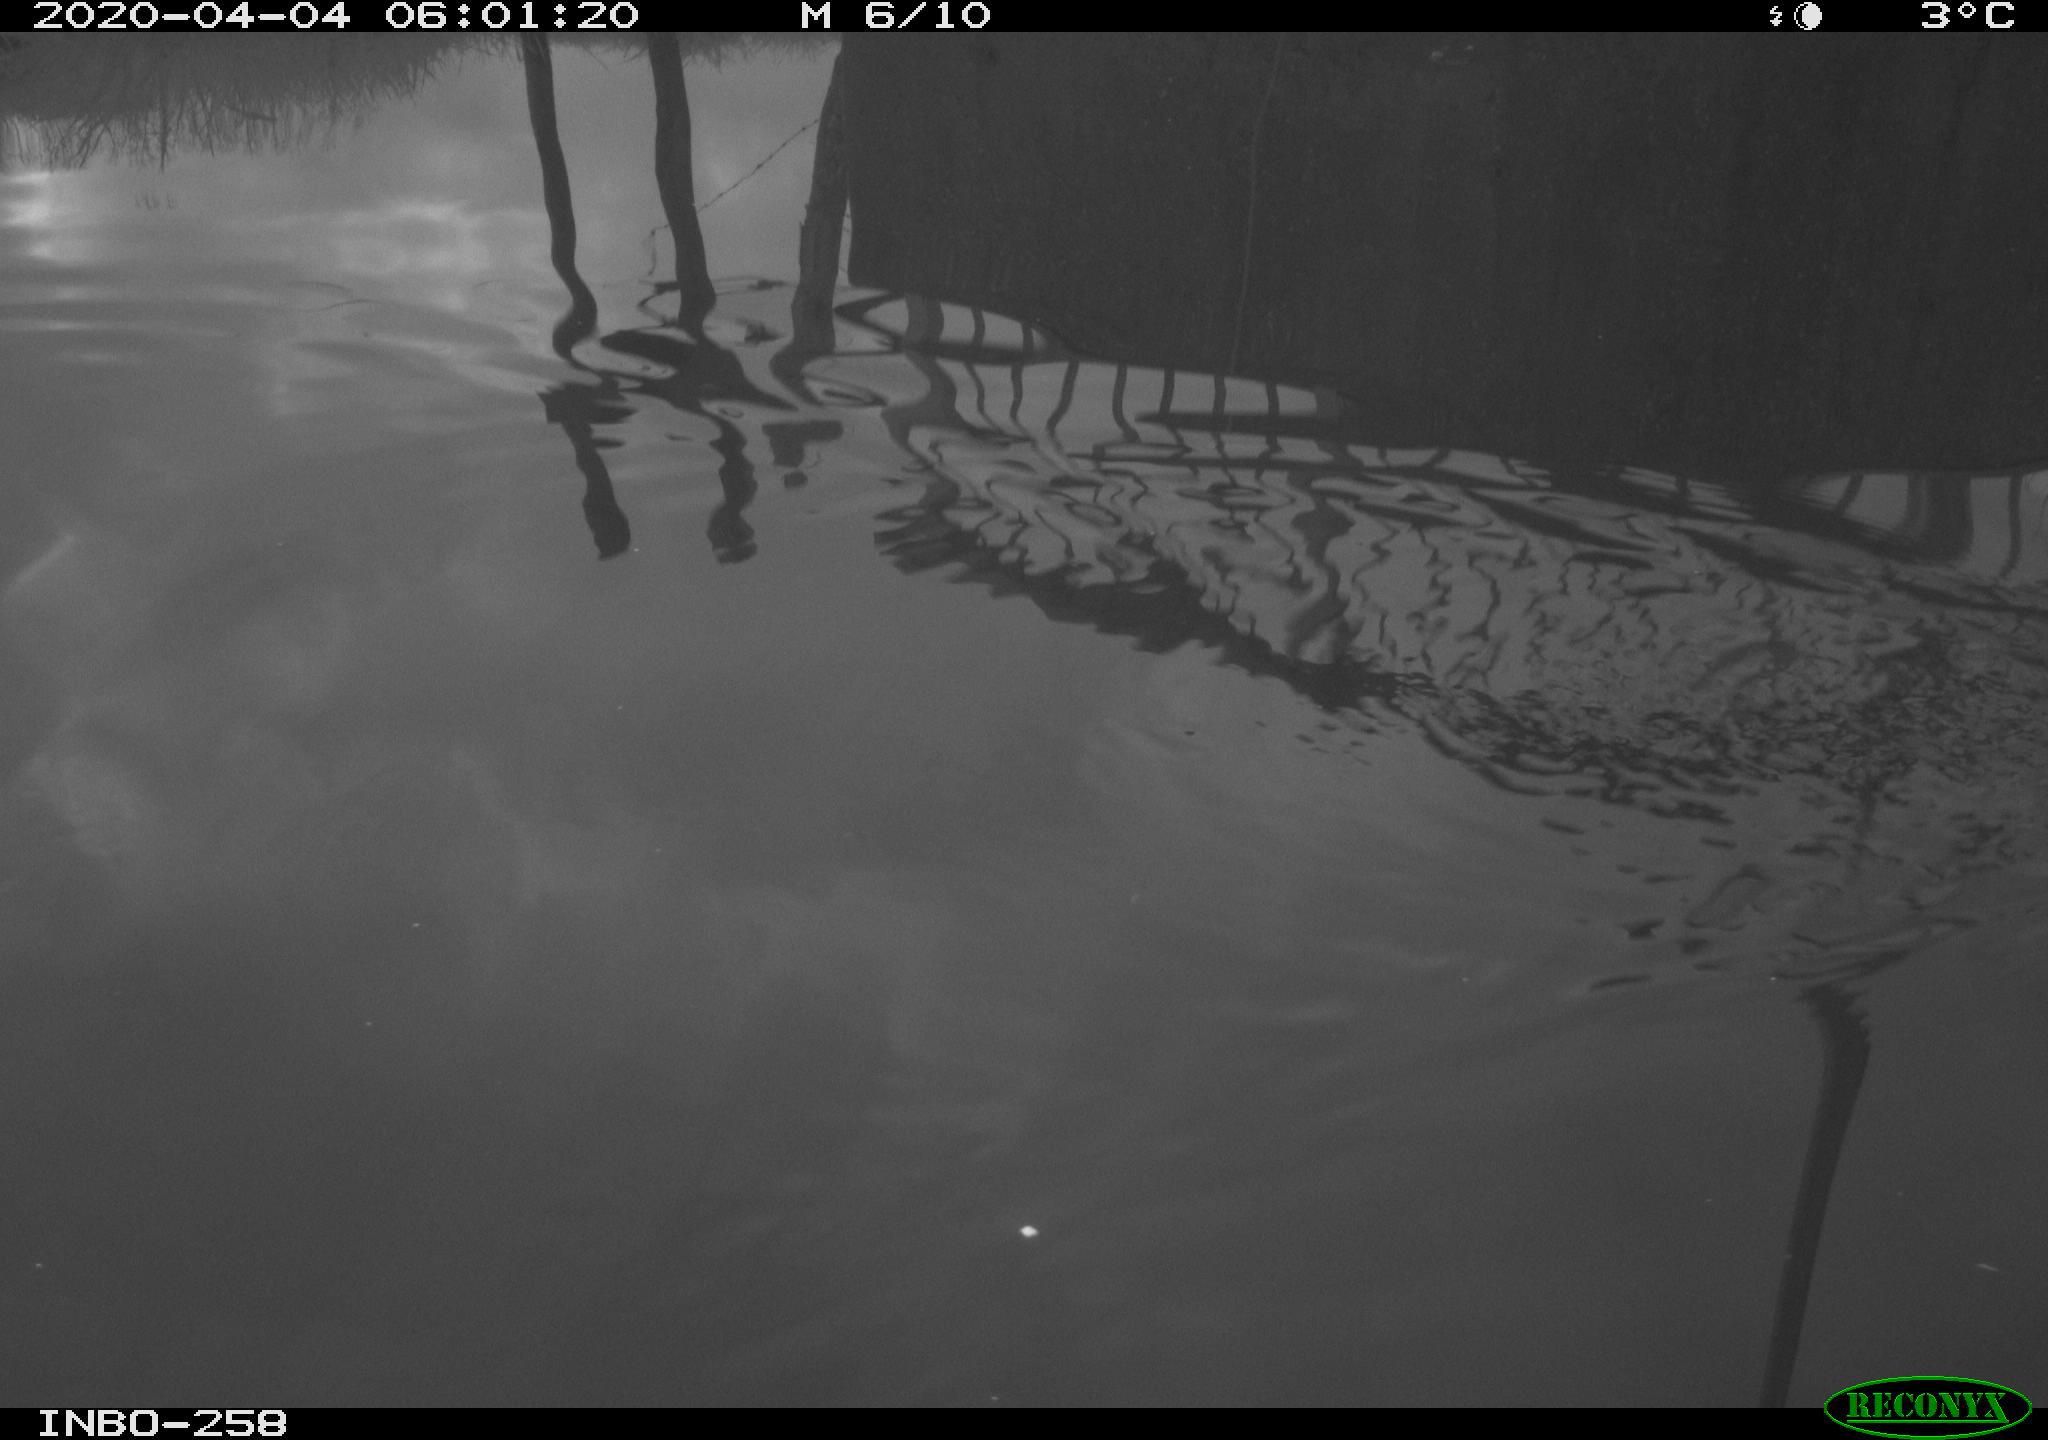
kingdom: Animalia
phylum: Chordata
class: Aves
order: Gruiformes
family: Rallidae
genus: Gallinula
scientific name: Gallinula chloropus
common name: Common moorhen
